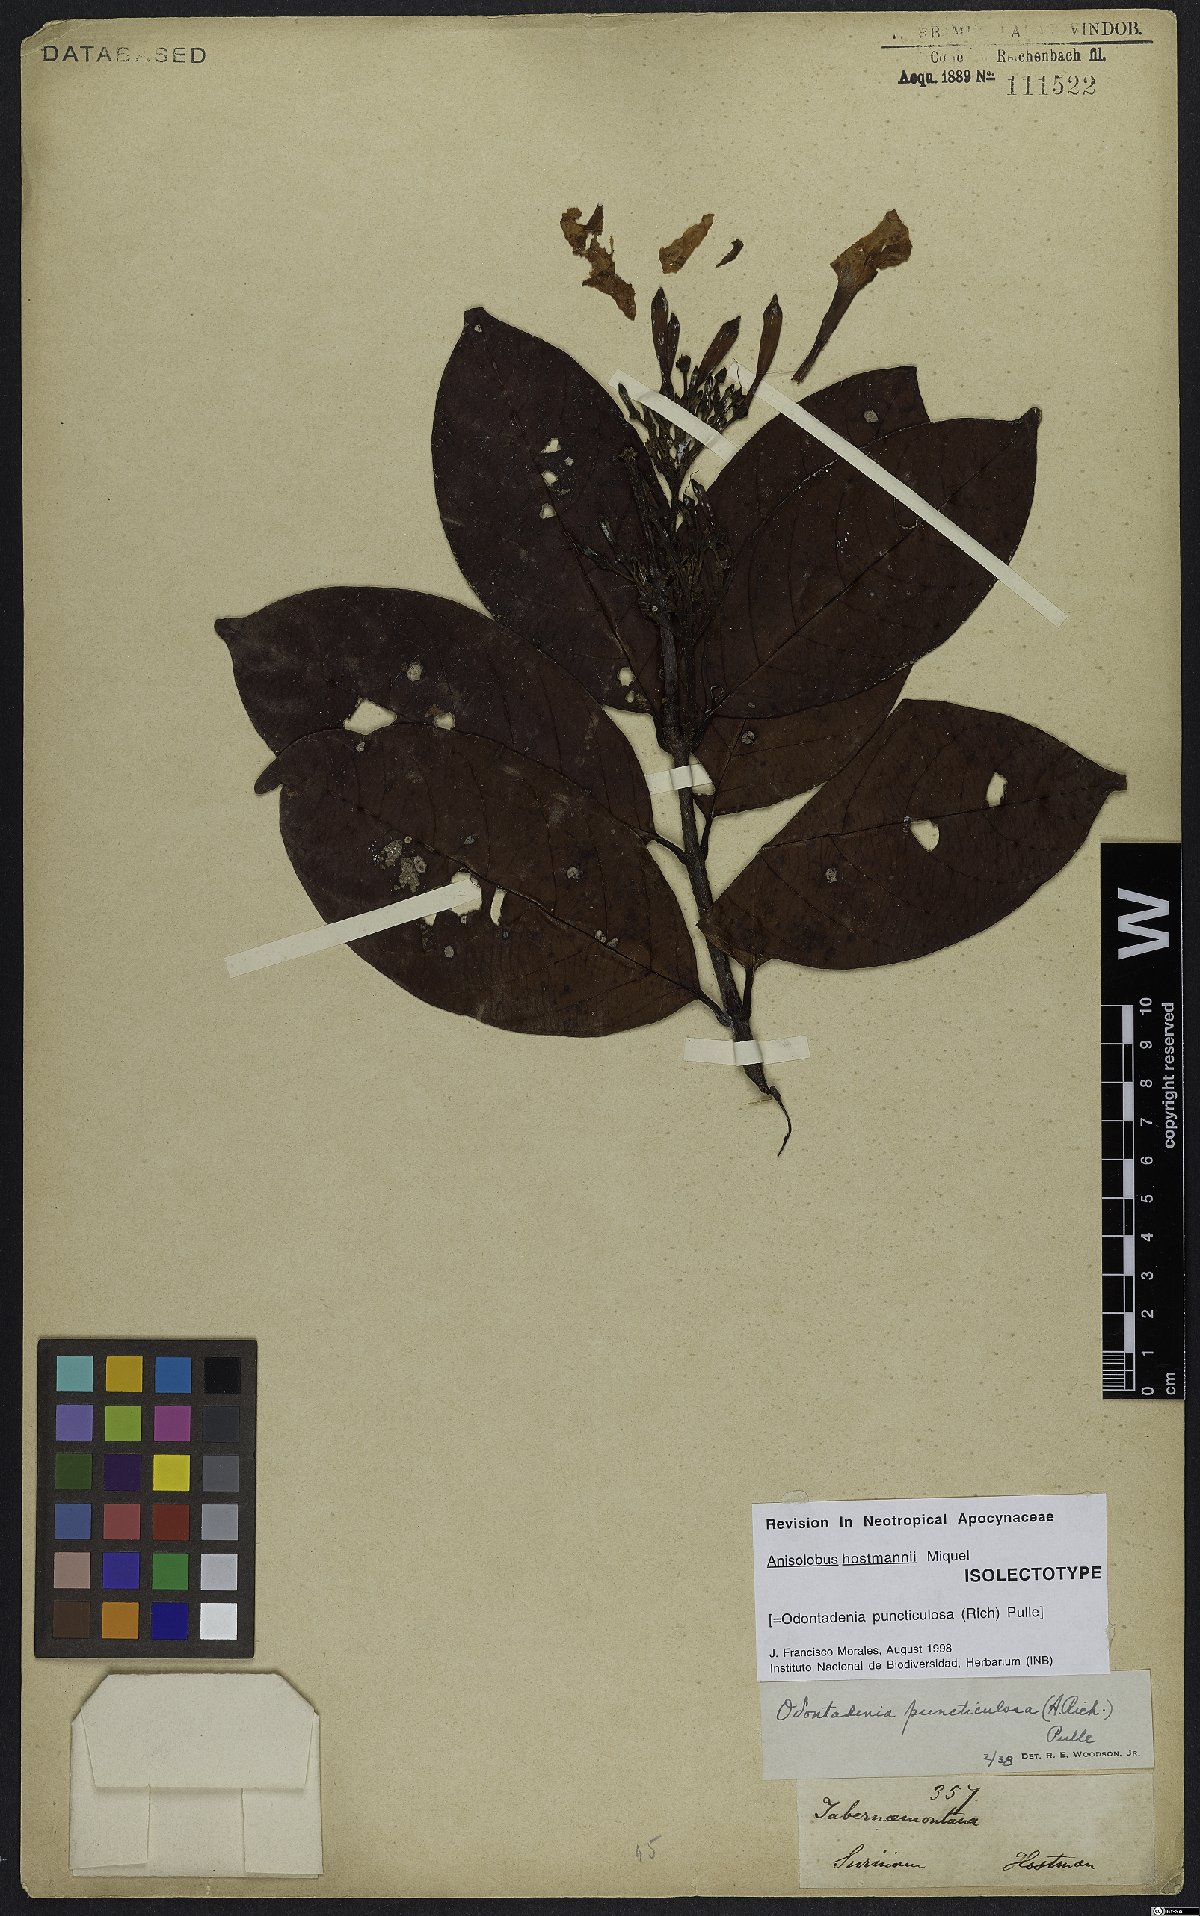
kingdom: Plantae
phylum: Tracheophyta
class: Magnoliopsida
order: Gentianales
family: Apocynaceae
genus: Odontadenia
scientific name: Odontadenia puncticulosa
